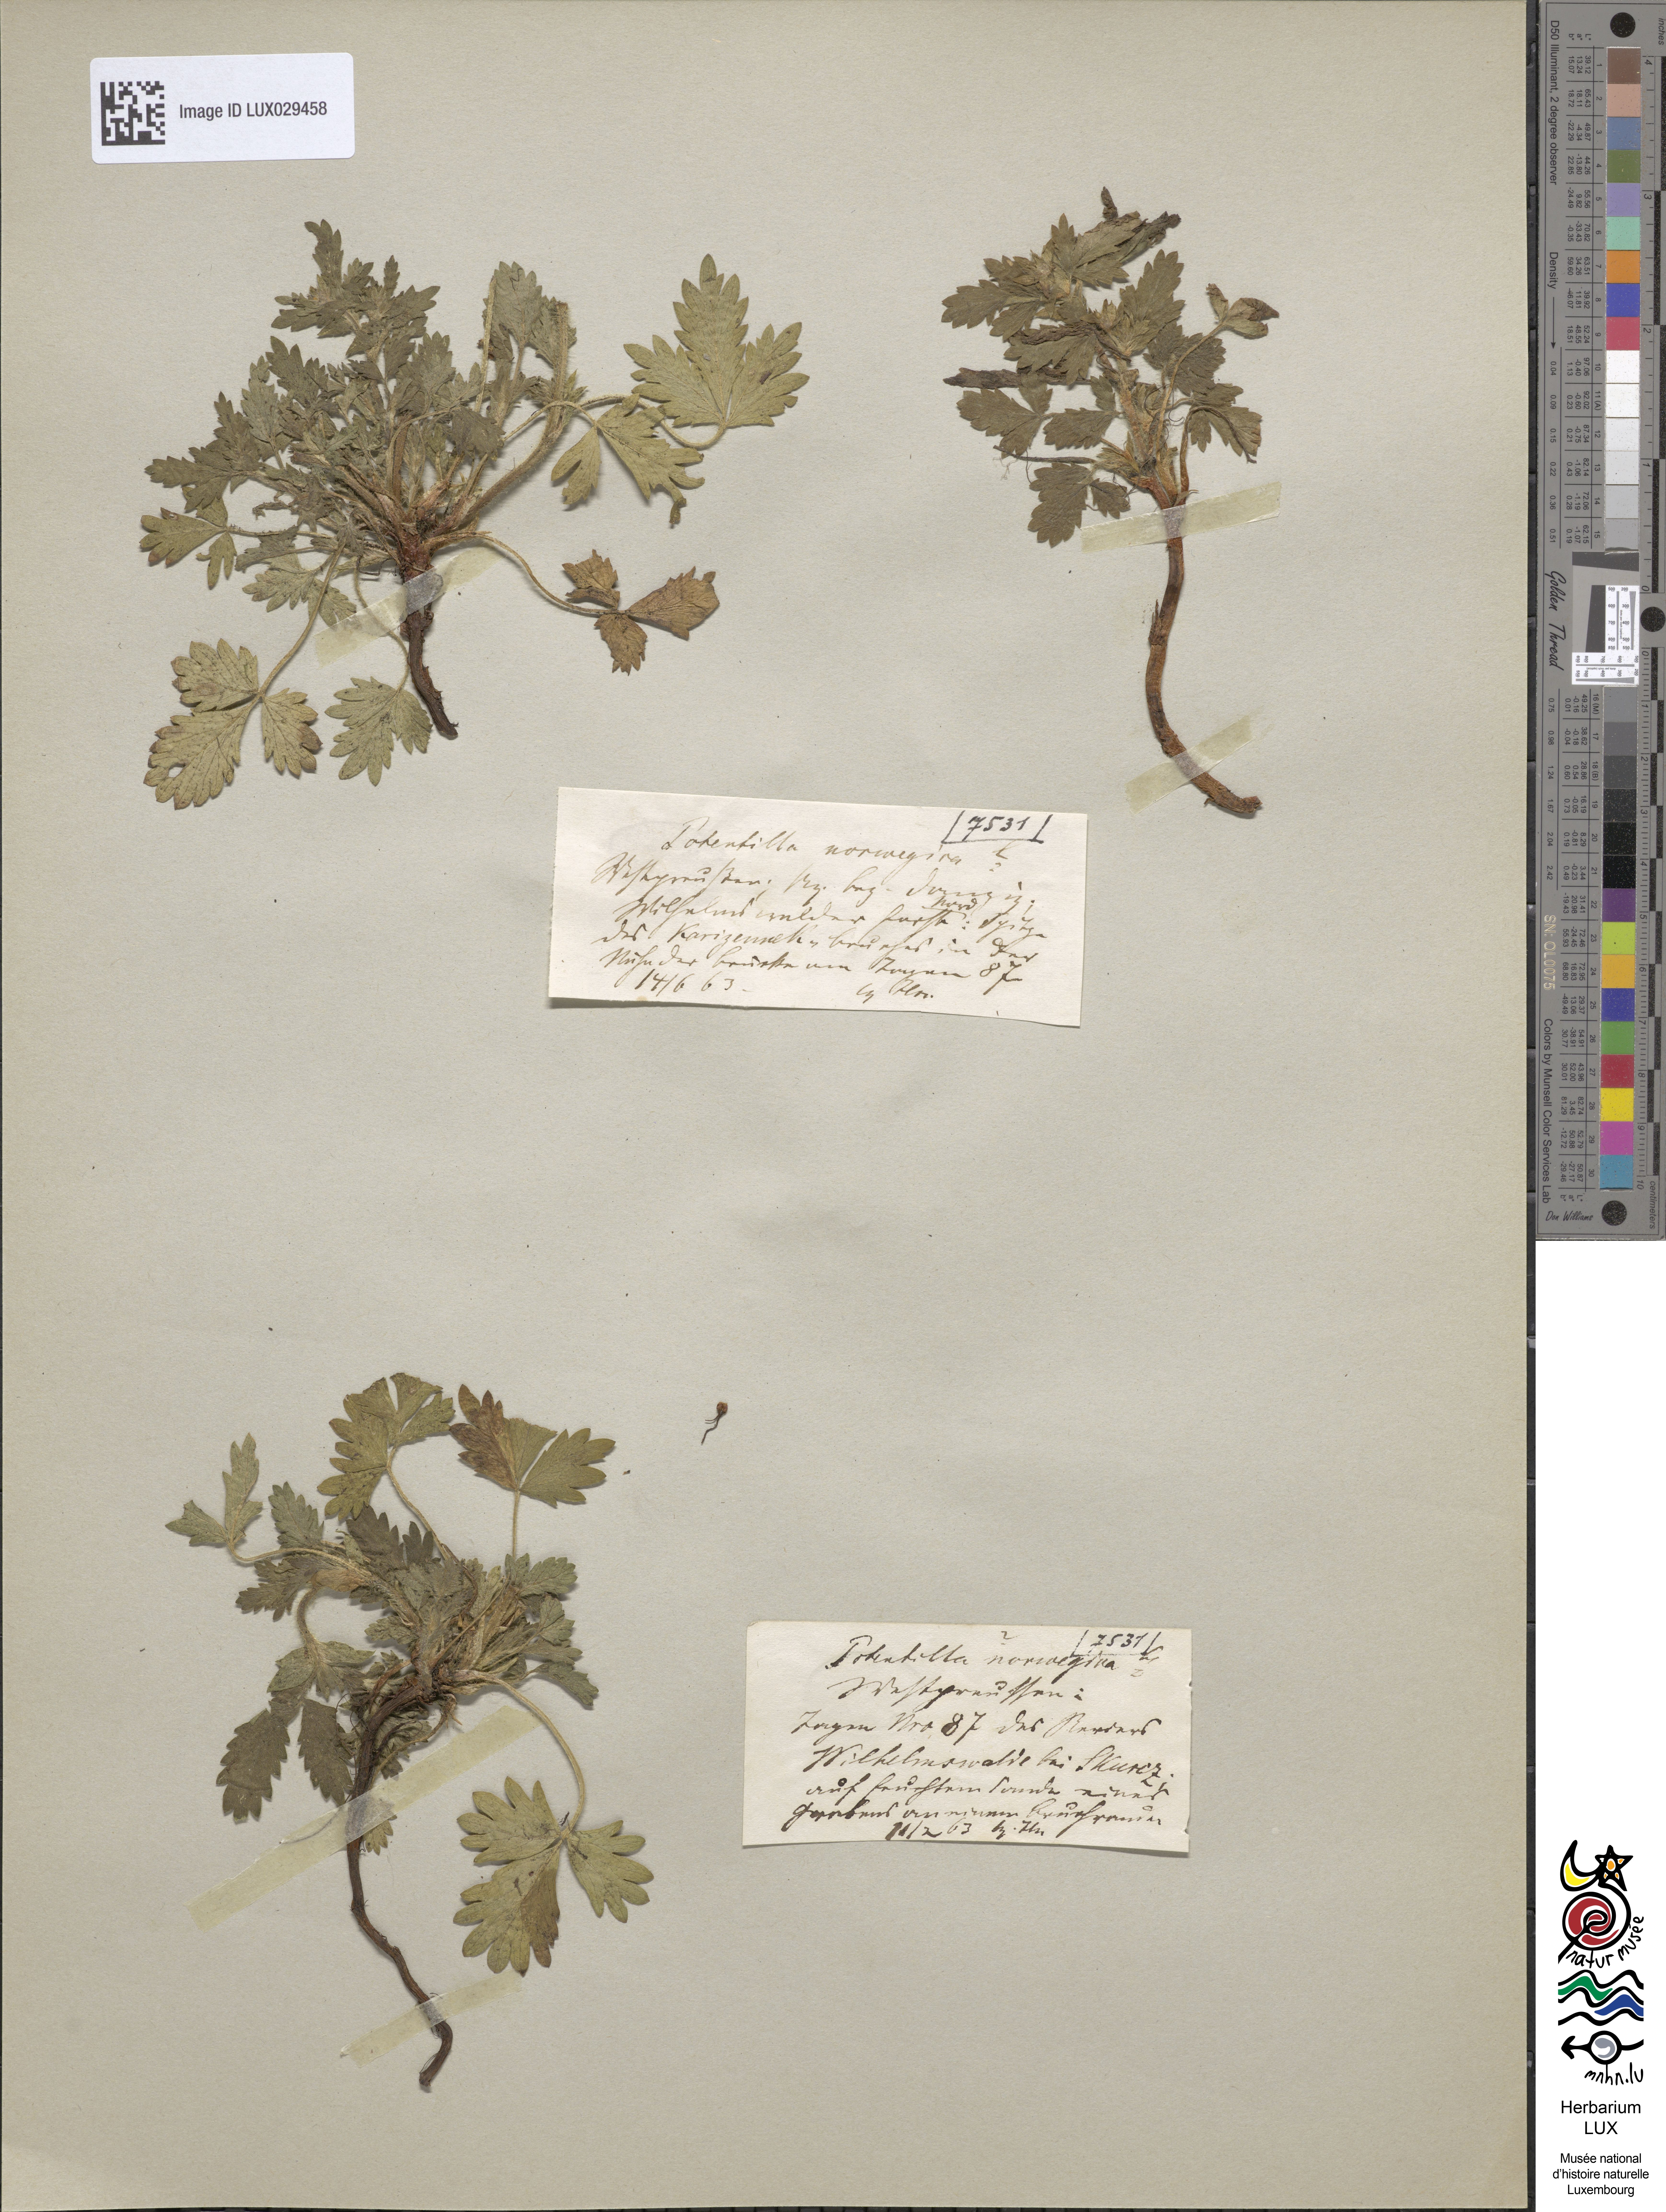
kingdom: Plantae
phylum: Tracheophyta
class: Magnoliopsida
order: Rosales
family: Rosaceae
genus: Potentilla
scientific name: Potentilla norvegica
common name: Ternate-leaved cinquefoil
